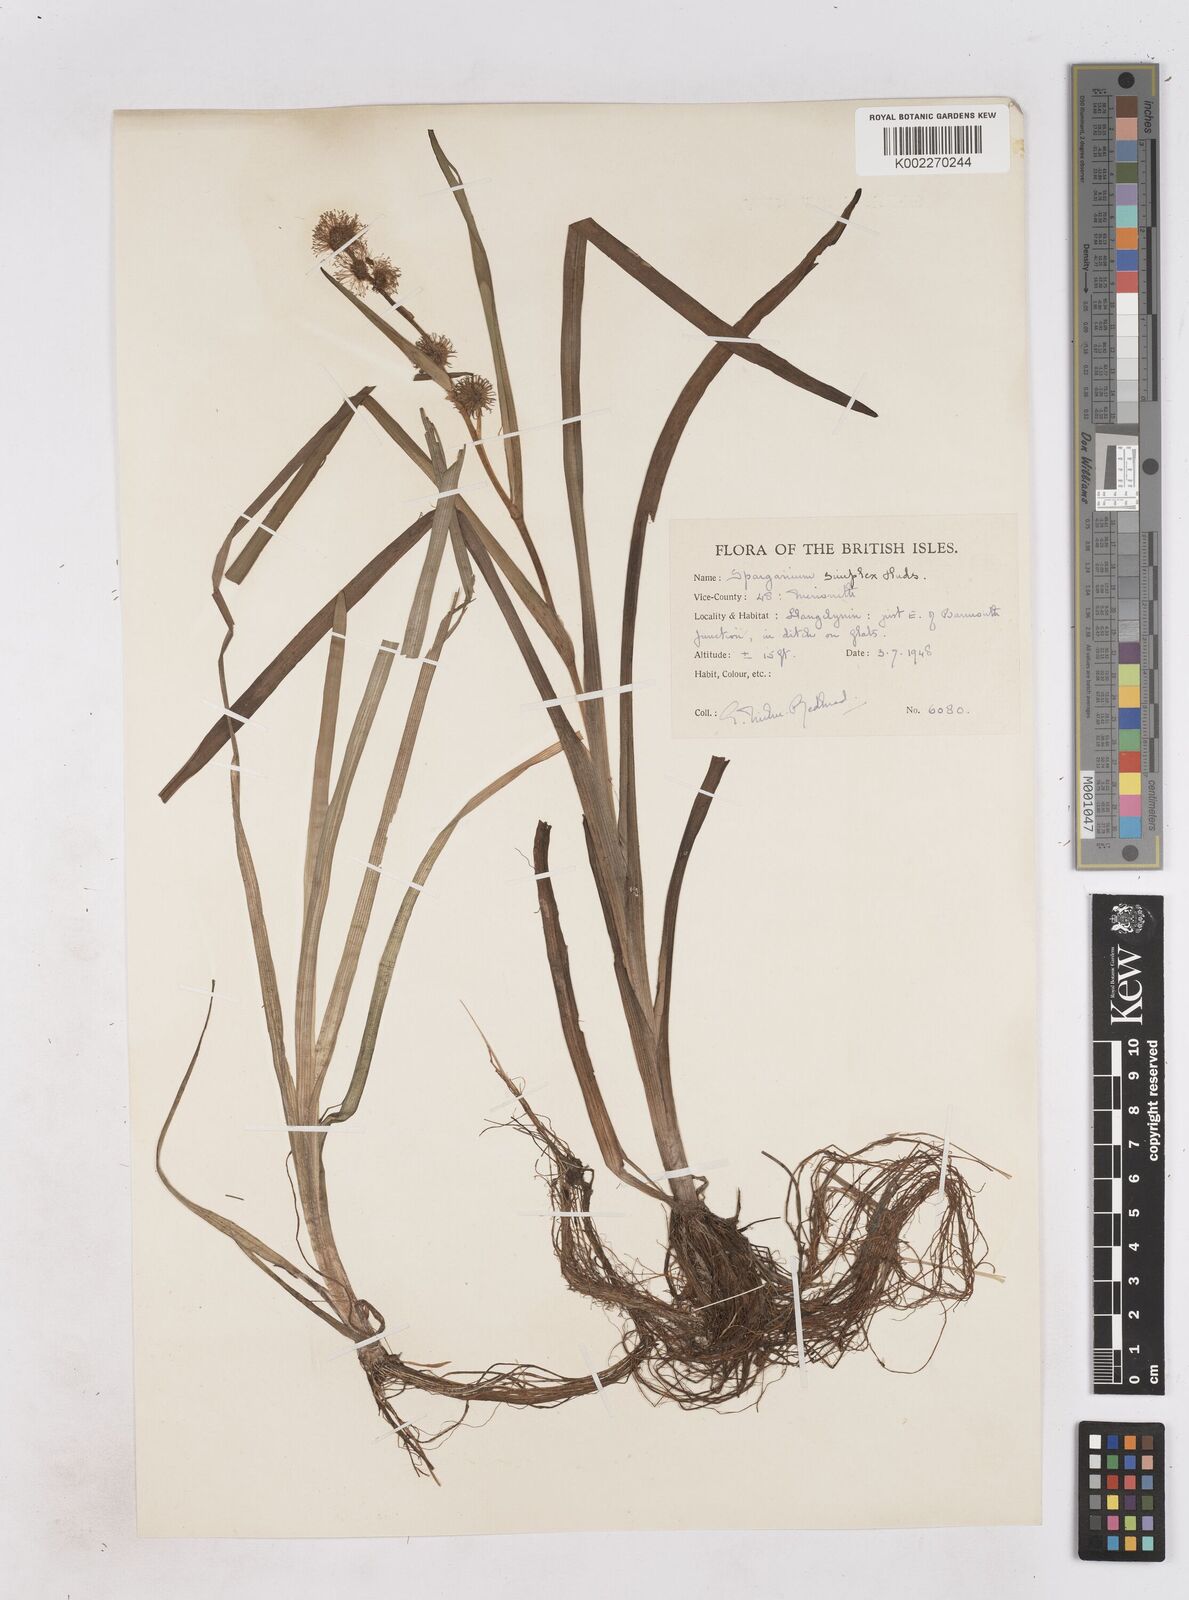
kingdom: Plantae
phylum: Tracheophyta
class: Liliopsida
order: Poales
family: Typhaceae
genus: Sparganium
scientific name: Sparganium emersum
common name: Unbranched bur-reed
